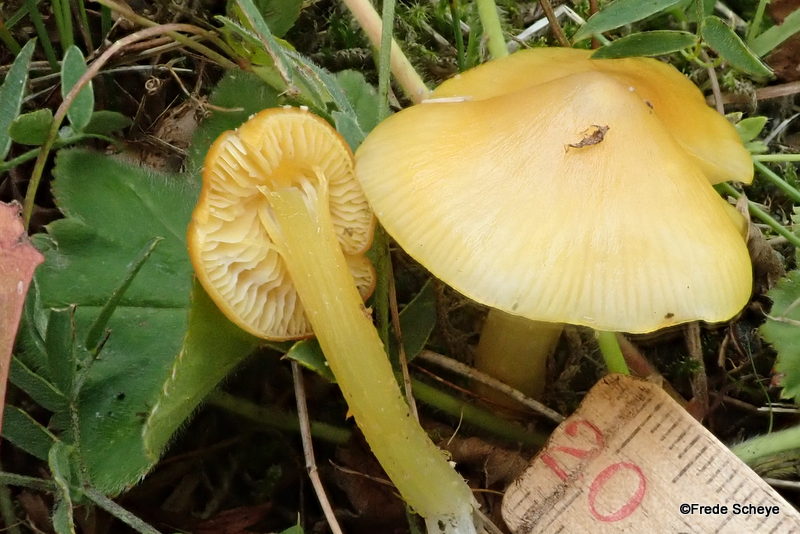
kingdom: Fungi
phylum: Basidiomycota
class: Agaricomycetes
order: Agaricales
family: Hygrophoraceae
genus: Hygrocybe
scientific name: Hygrocybe
